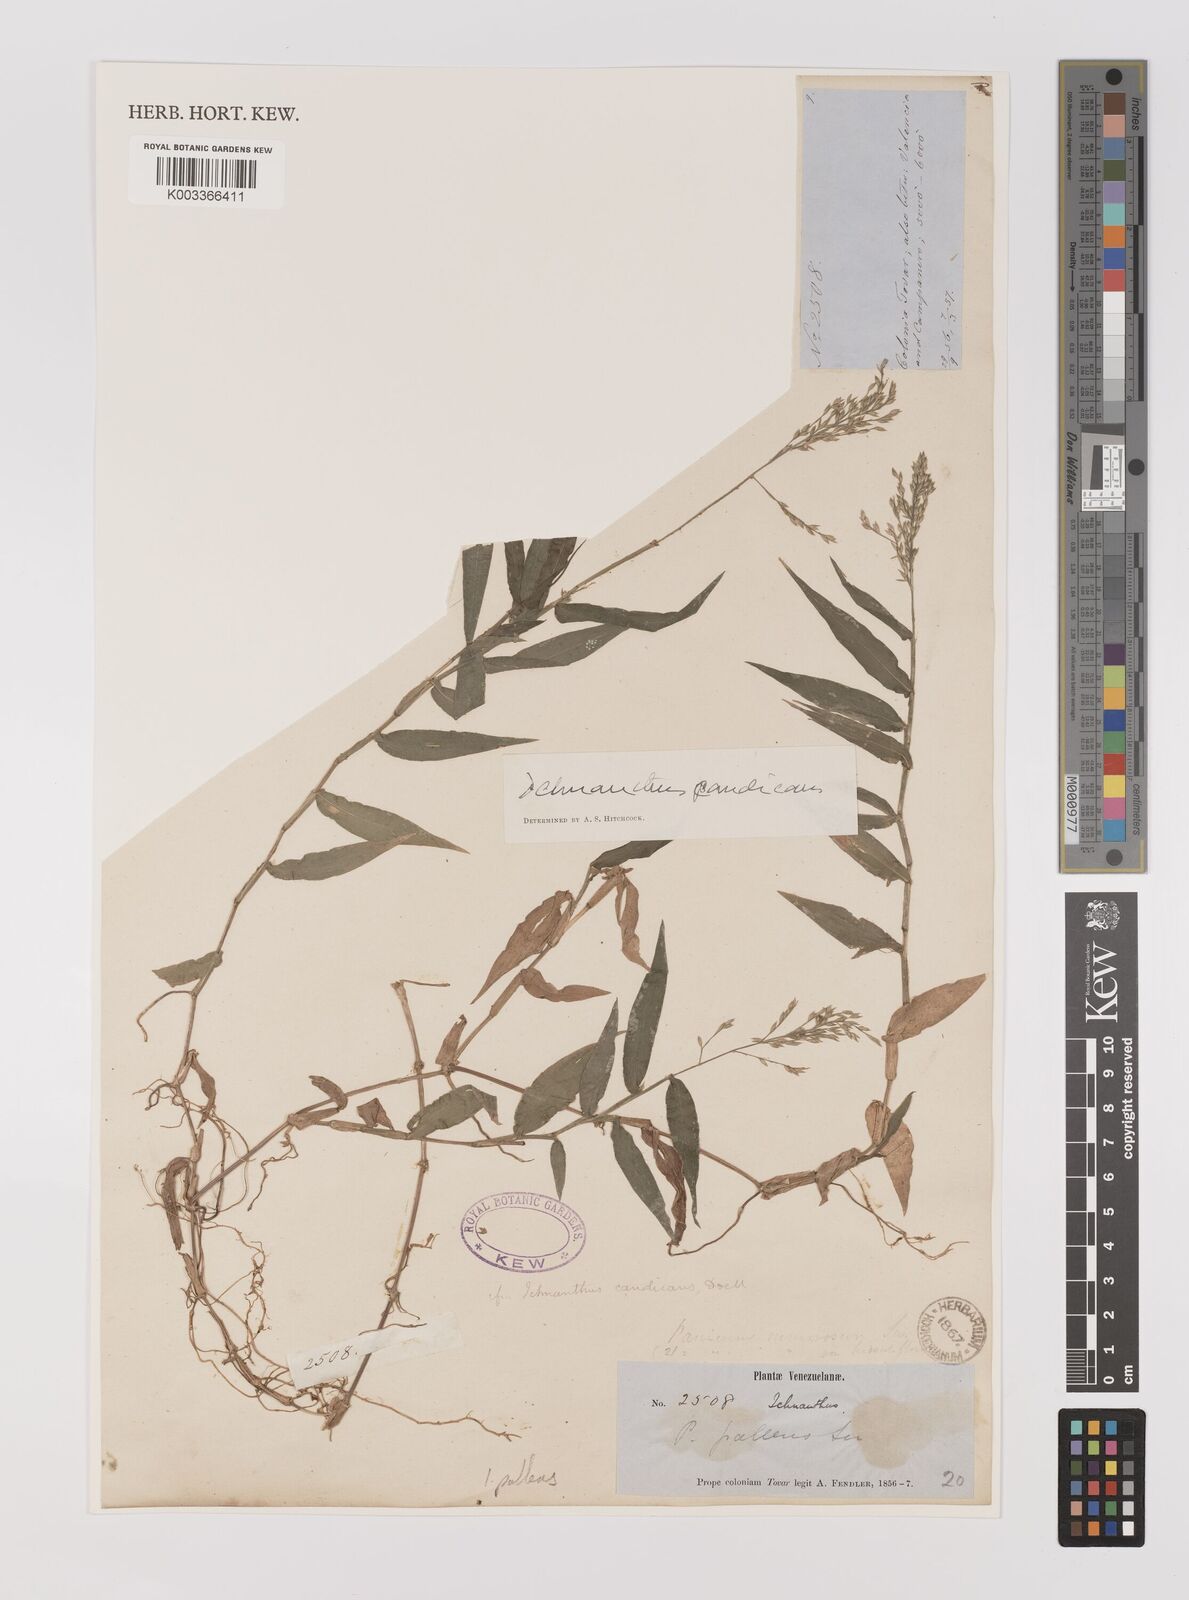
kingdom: Plantae
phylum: Tracheophyta
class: Liliopsida
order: Poales
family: Poaceae
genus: Ichnanthus
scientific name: Ichnanthus pallens
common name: Water grass
